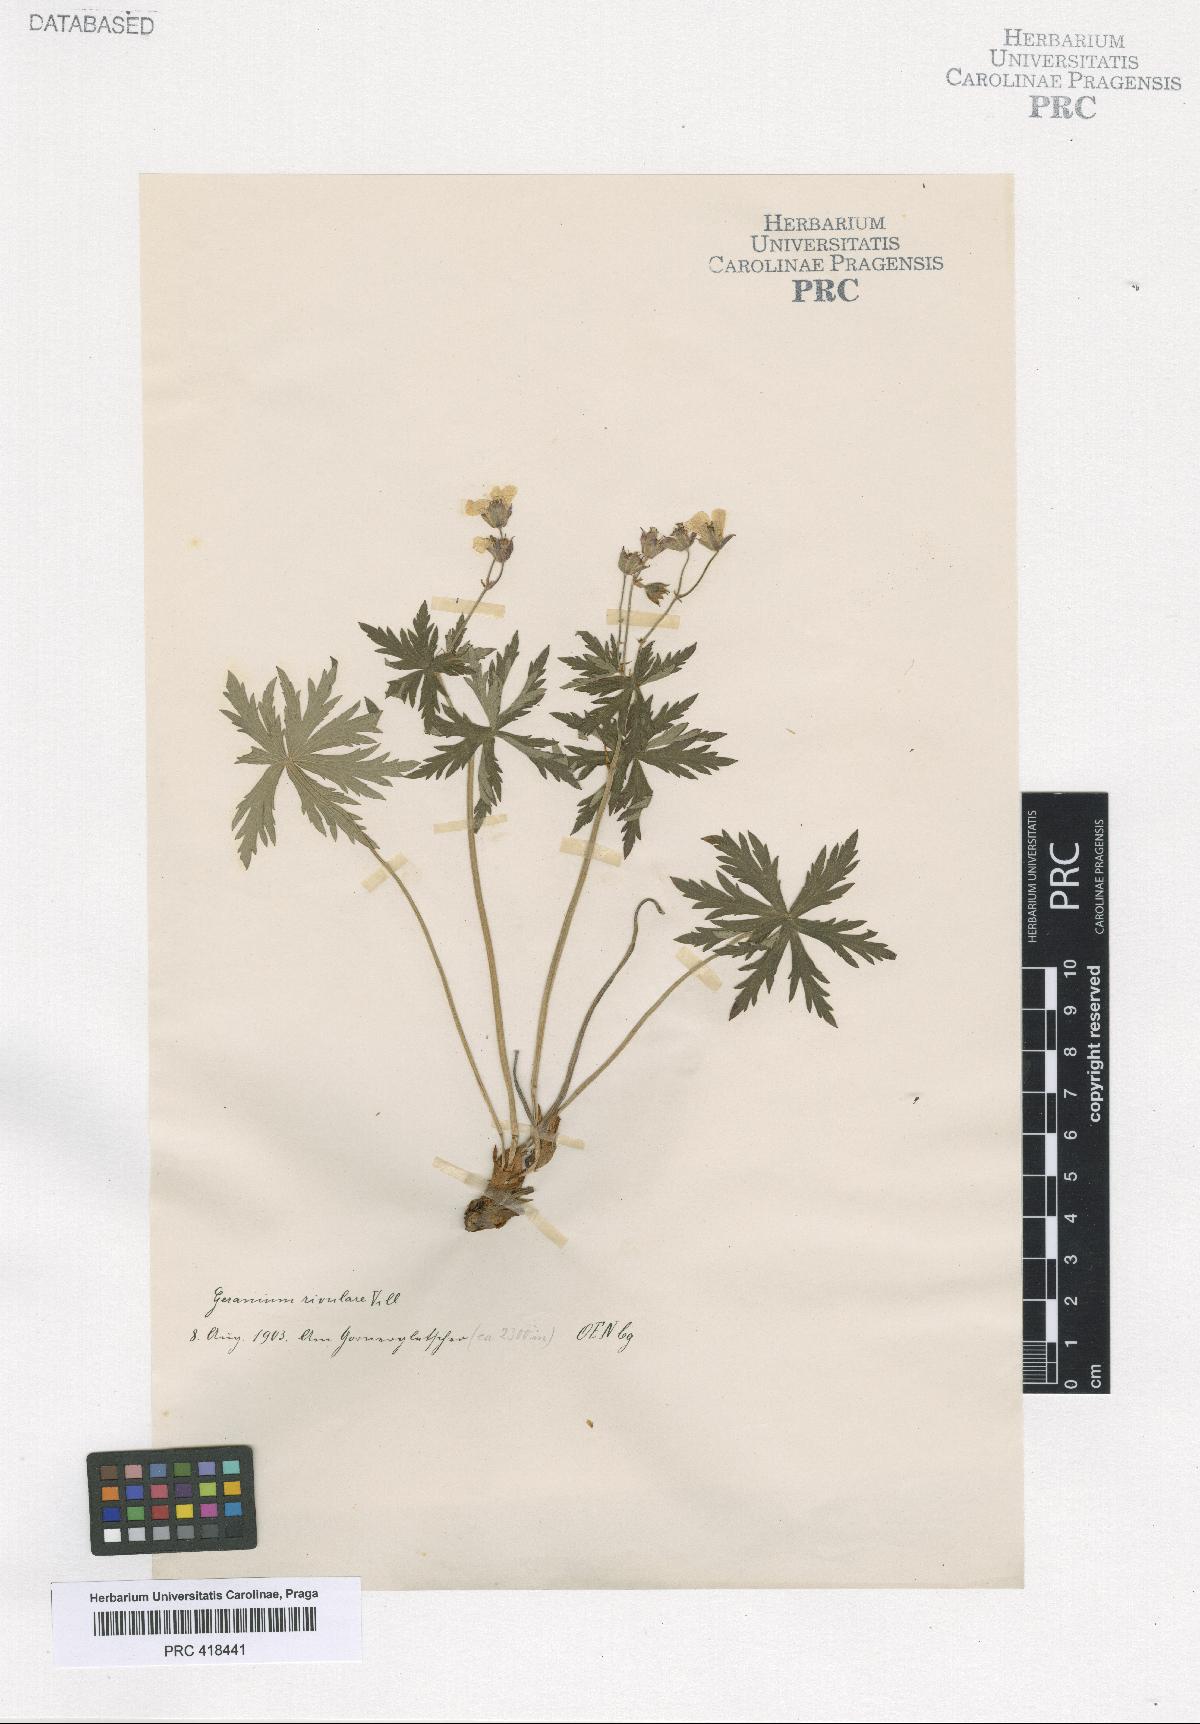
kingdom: Plantae
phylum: Tracheophyta
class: Magnoliopsida
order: Geraniales
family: Geraniaceae
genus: Geranium
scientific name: Geranium rivulare
